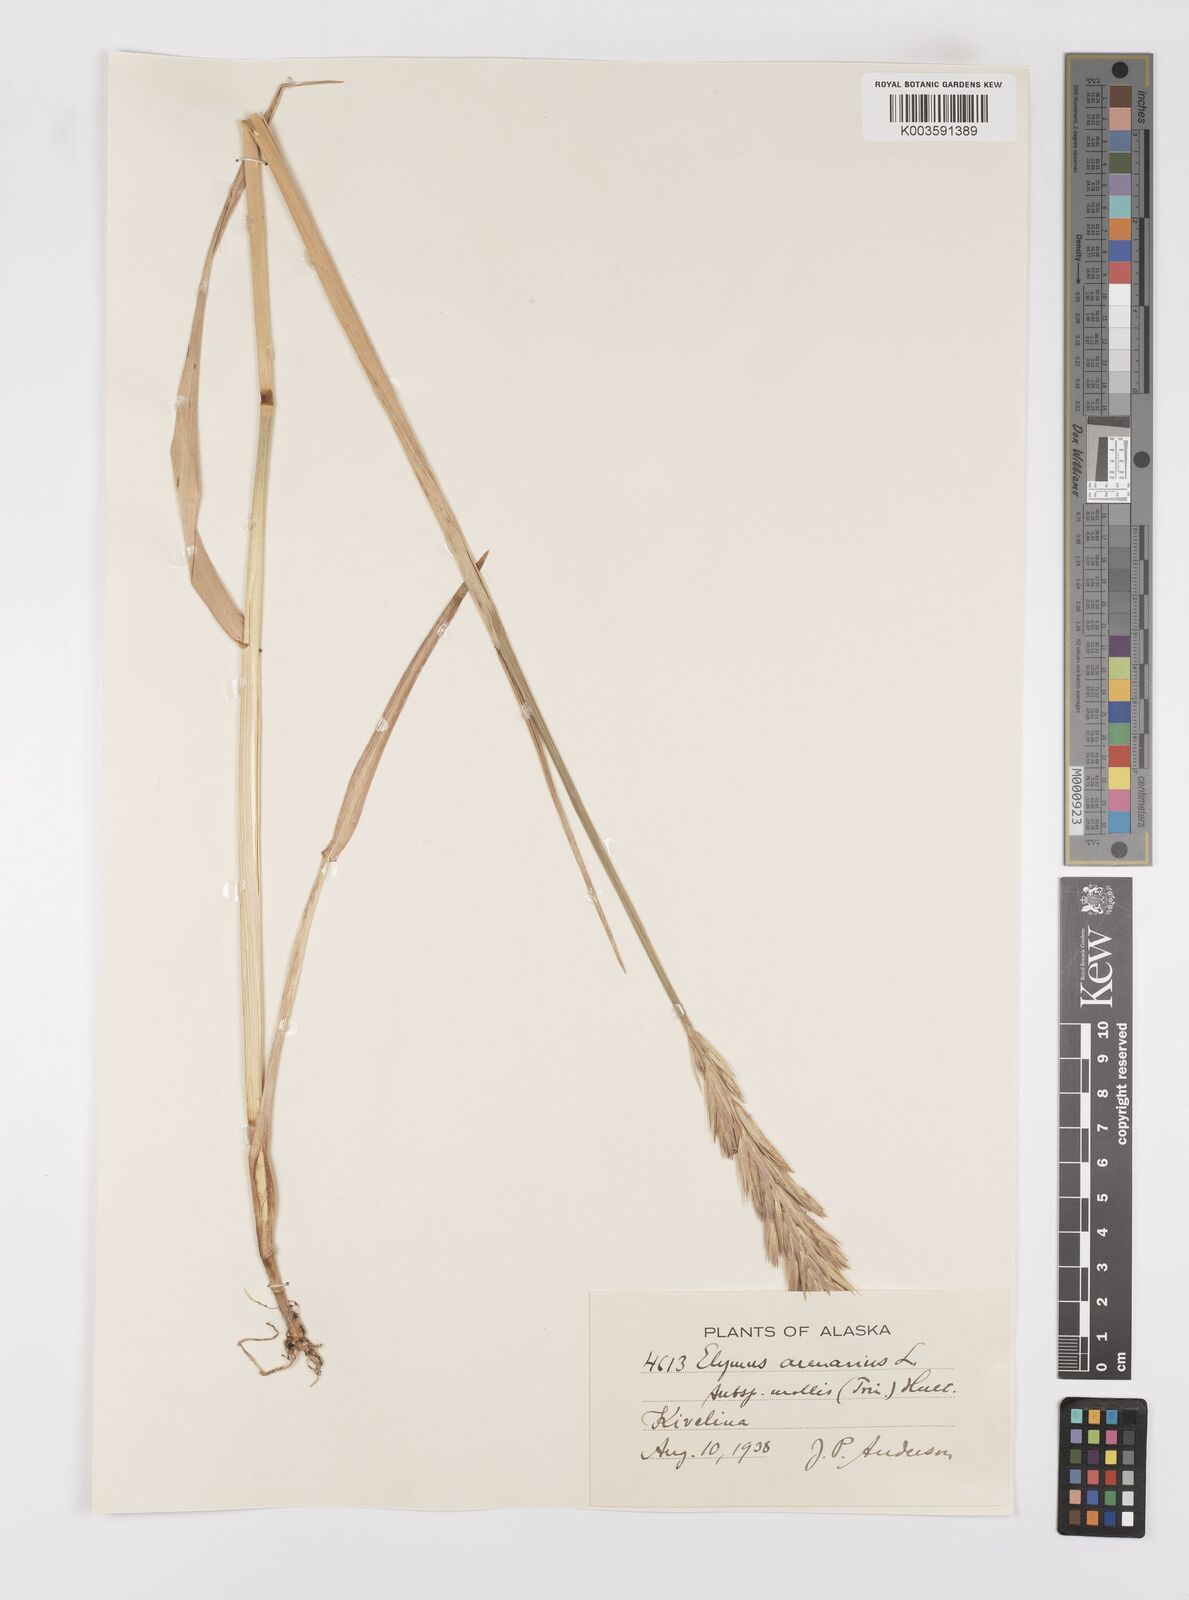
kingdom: Plantae
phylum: Tracheophyta
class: Liliopsida
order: Poales
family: Poaceae
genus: Leymus
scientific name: Leymus mollis
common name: American dune grass
